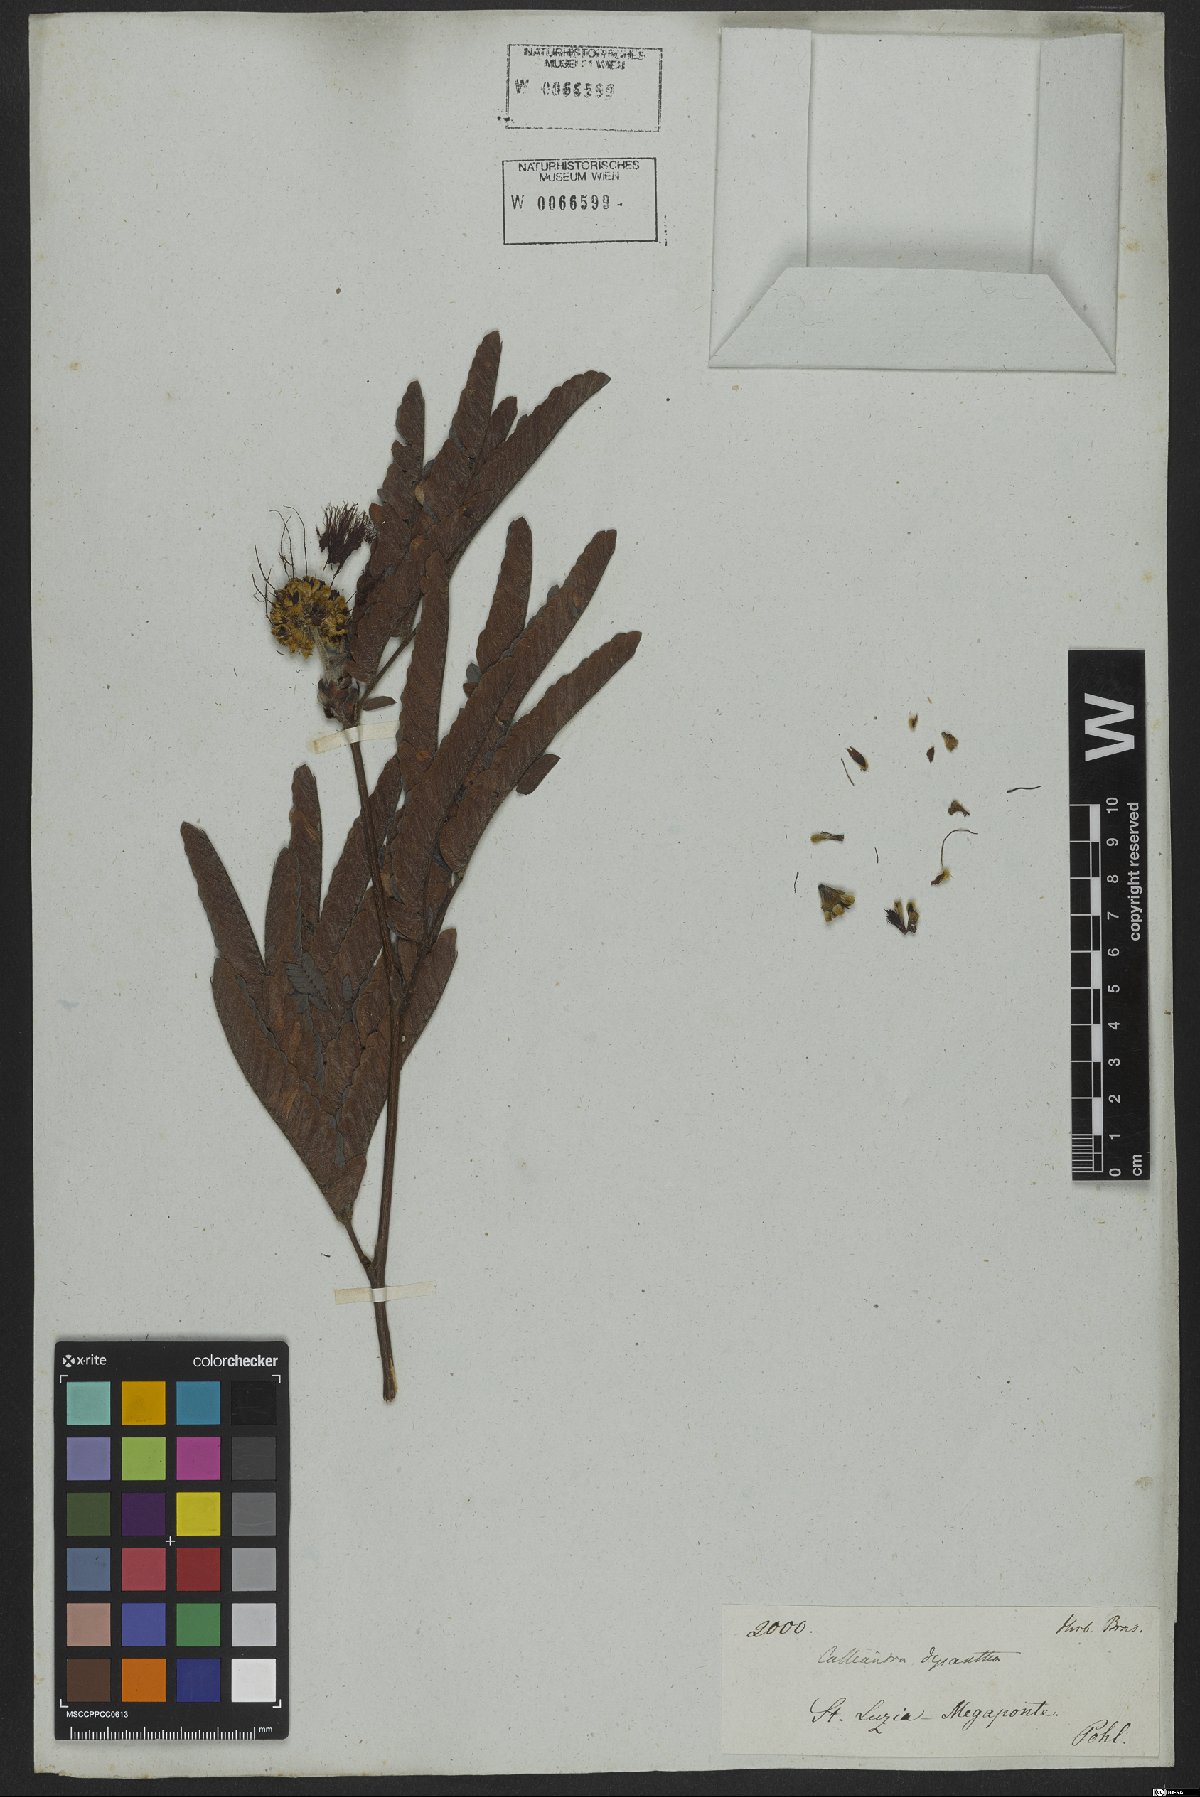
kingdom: Plantae
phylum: Tracheophyta
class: Magnoliopsida
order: Fabales
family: Fabaceae
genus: Calliandra
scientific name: Calliandra dysantha
